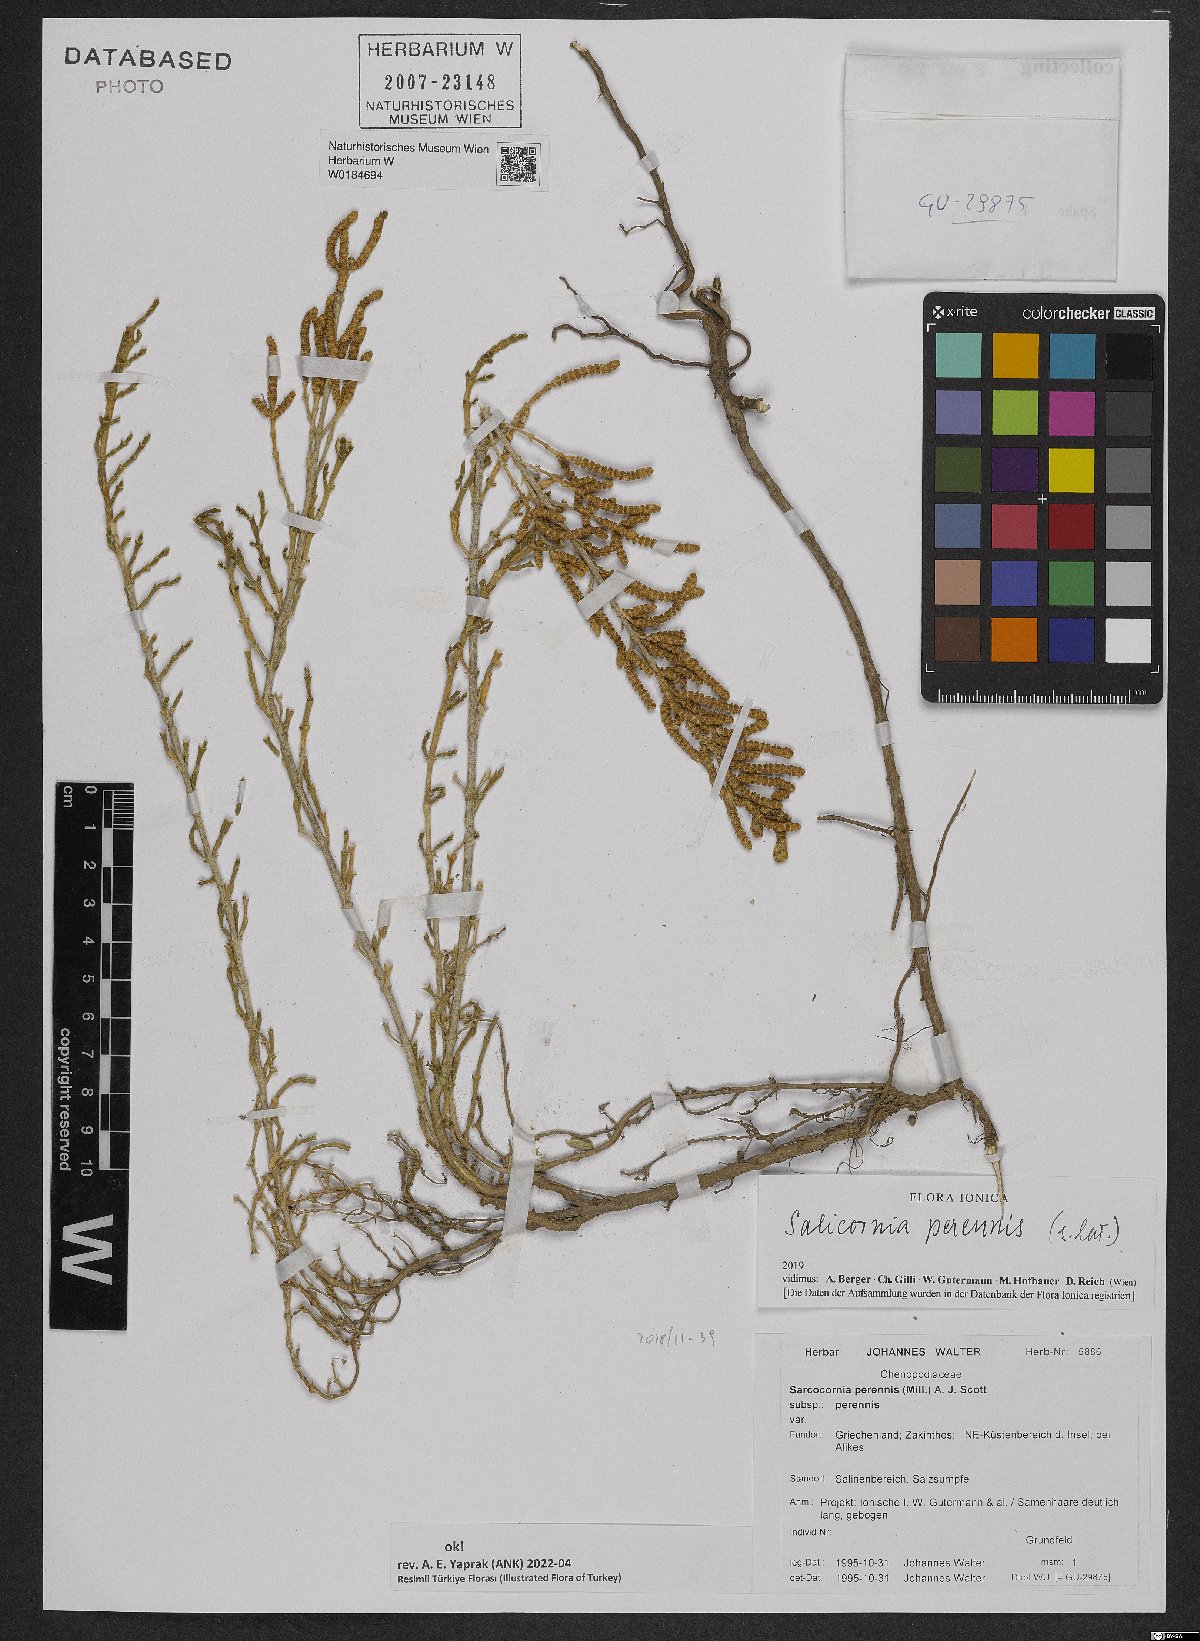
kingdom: Plantae
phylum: Tracheophyta
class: Magnoliopsida
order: Caryophyllales
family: Amaranthaceae
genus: Salicornia
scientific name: Salicornia perennis
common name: Chicken claws
